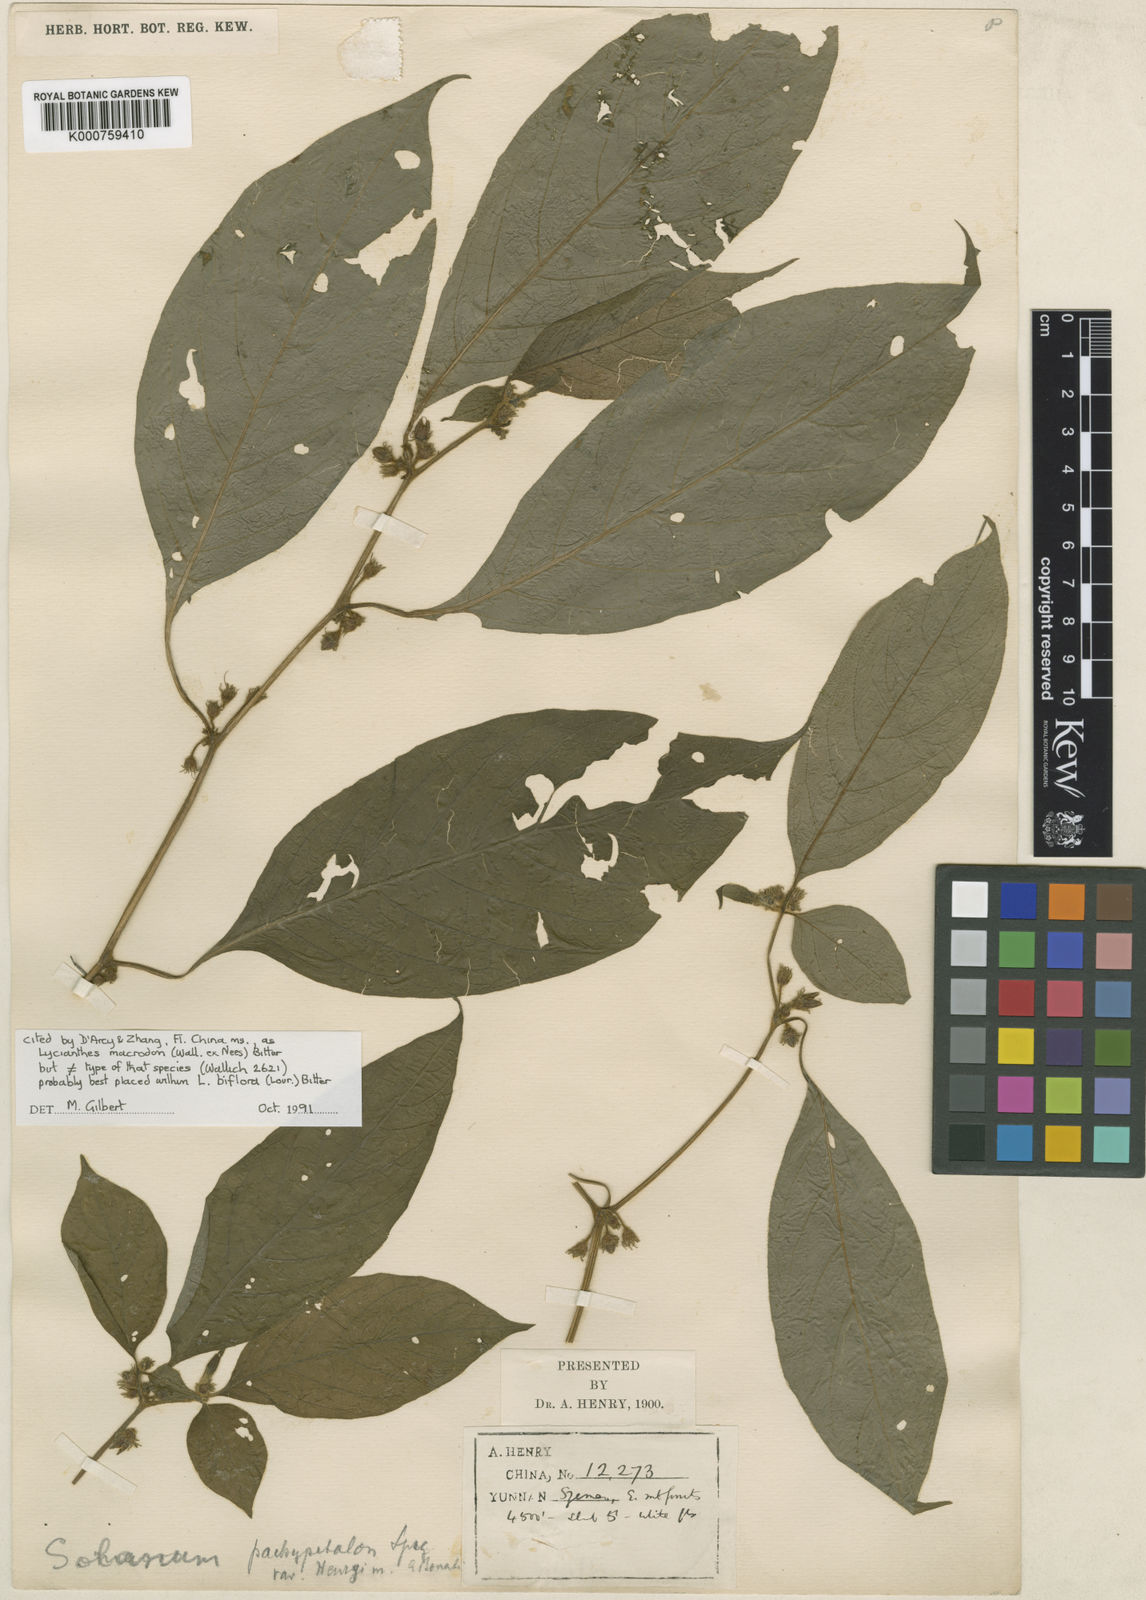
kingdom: Plantae
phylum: Tracheophyta
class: Magnoliopsida
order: Solanales
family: Solanaceae
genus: Solanum
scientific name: Solanum
